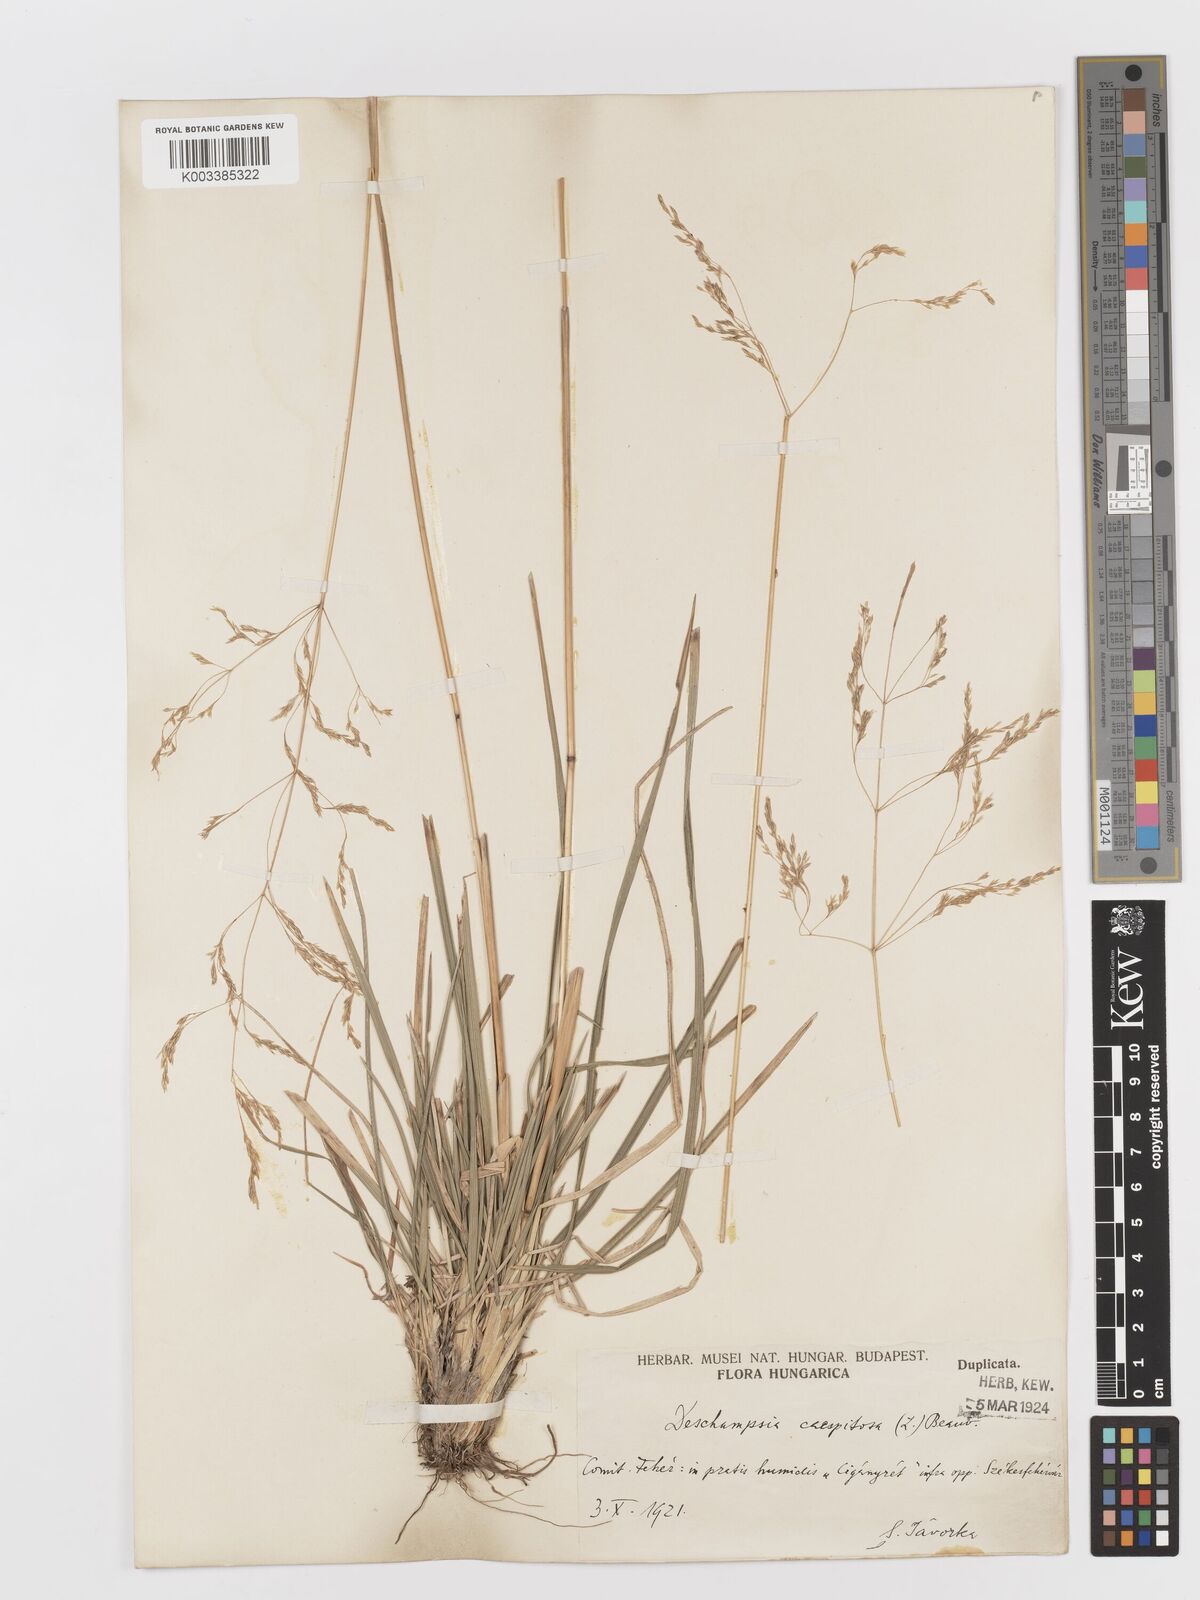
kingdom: Plantae
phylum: Tracheophyta
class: Liliopsida
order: Poales
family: Poaceae
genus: Deschampsia
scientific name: Deschampsia cespitosa
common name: Tufted hair-grass
